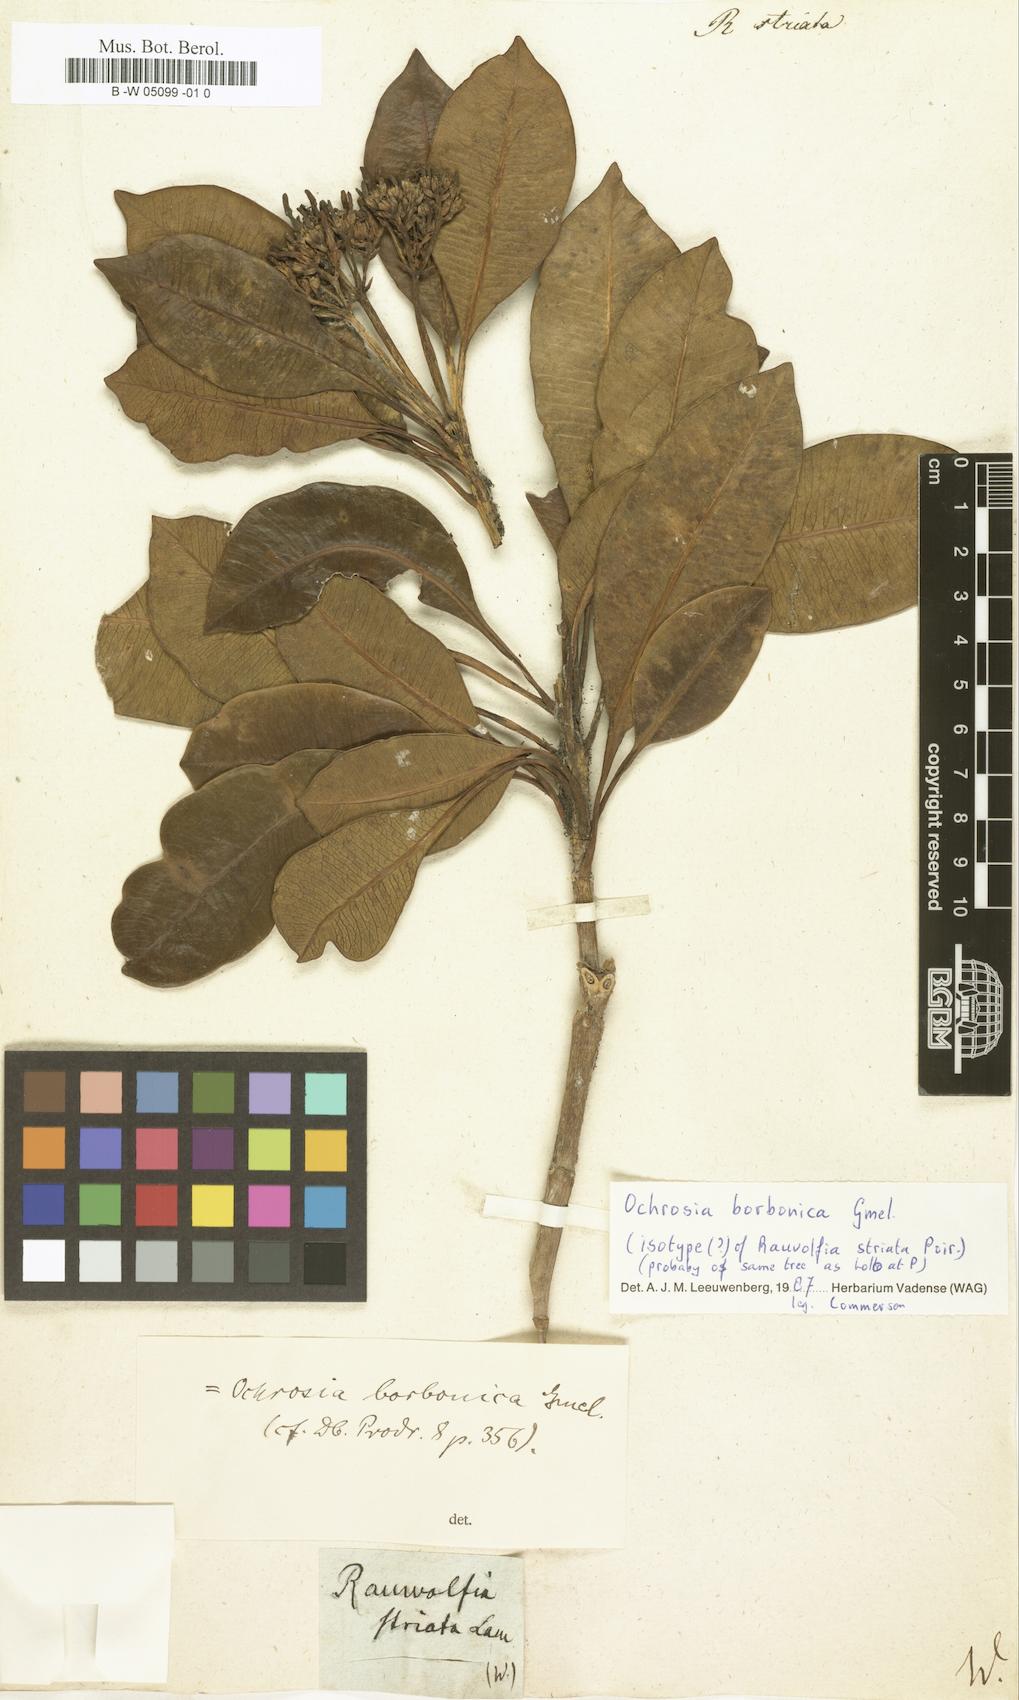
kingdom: Plantae
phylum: Tracheophyta
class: Magnoliopsida
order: Gentianales
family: Apocynaceae
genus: Ochrosia
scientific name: Ochrosia borbonica
